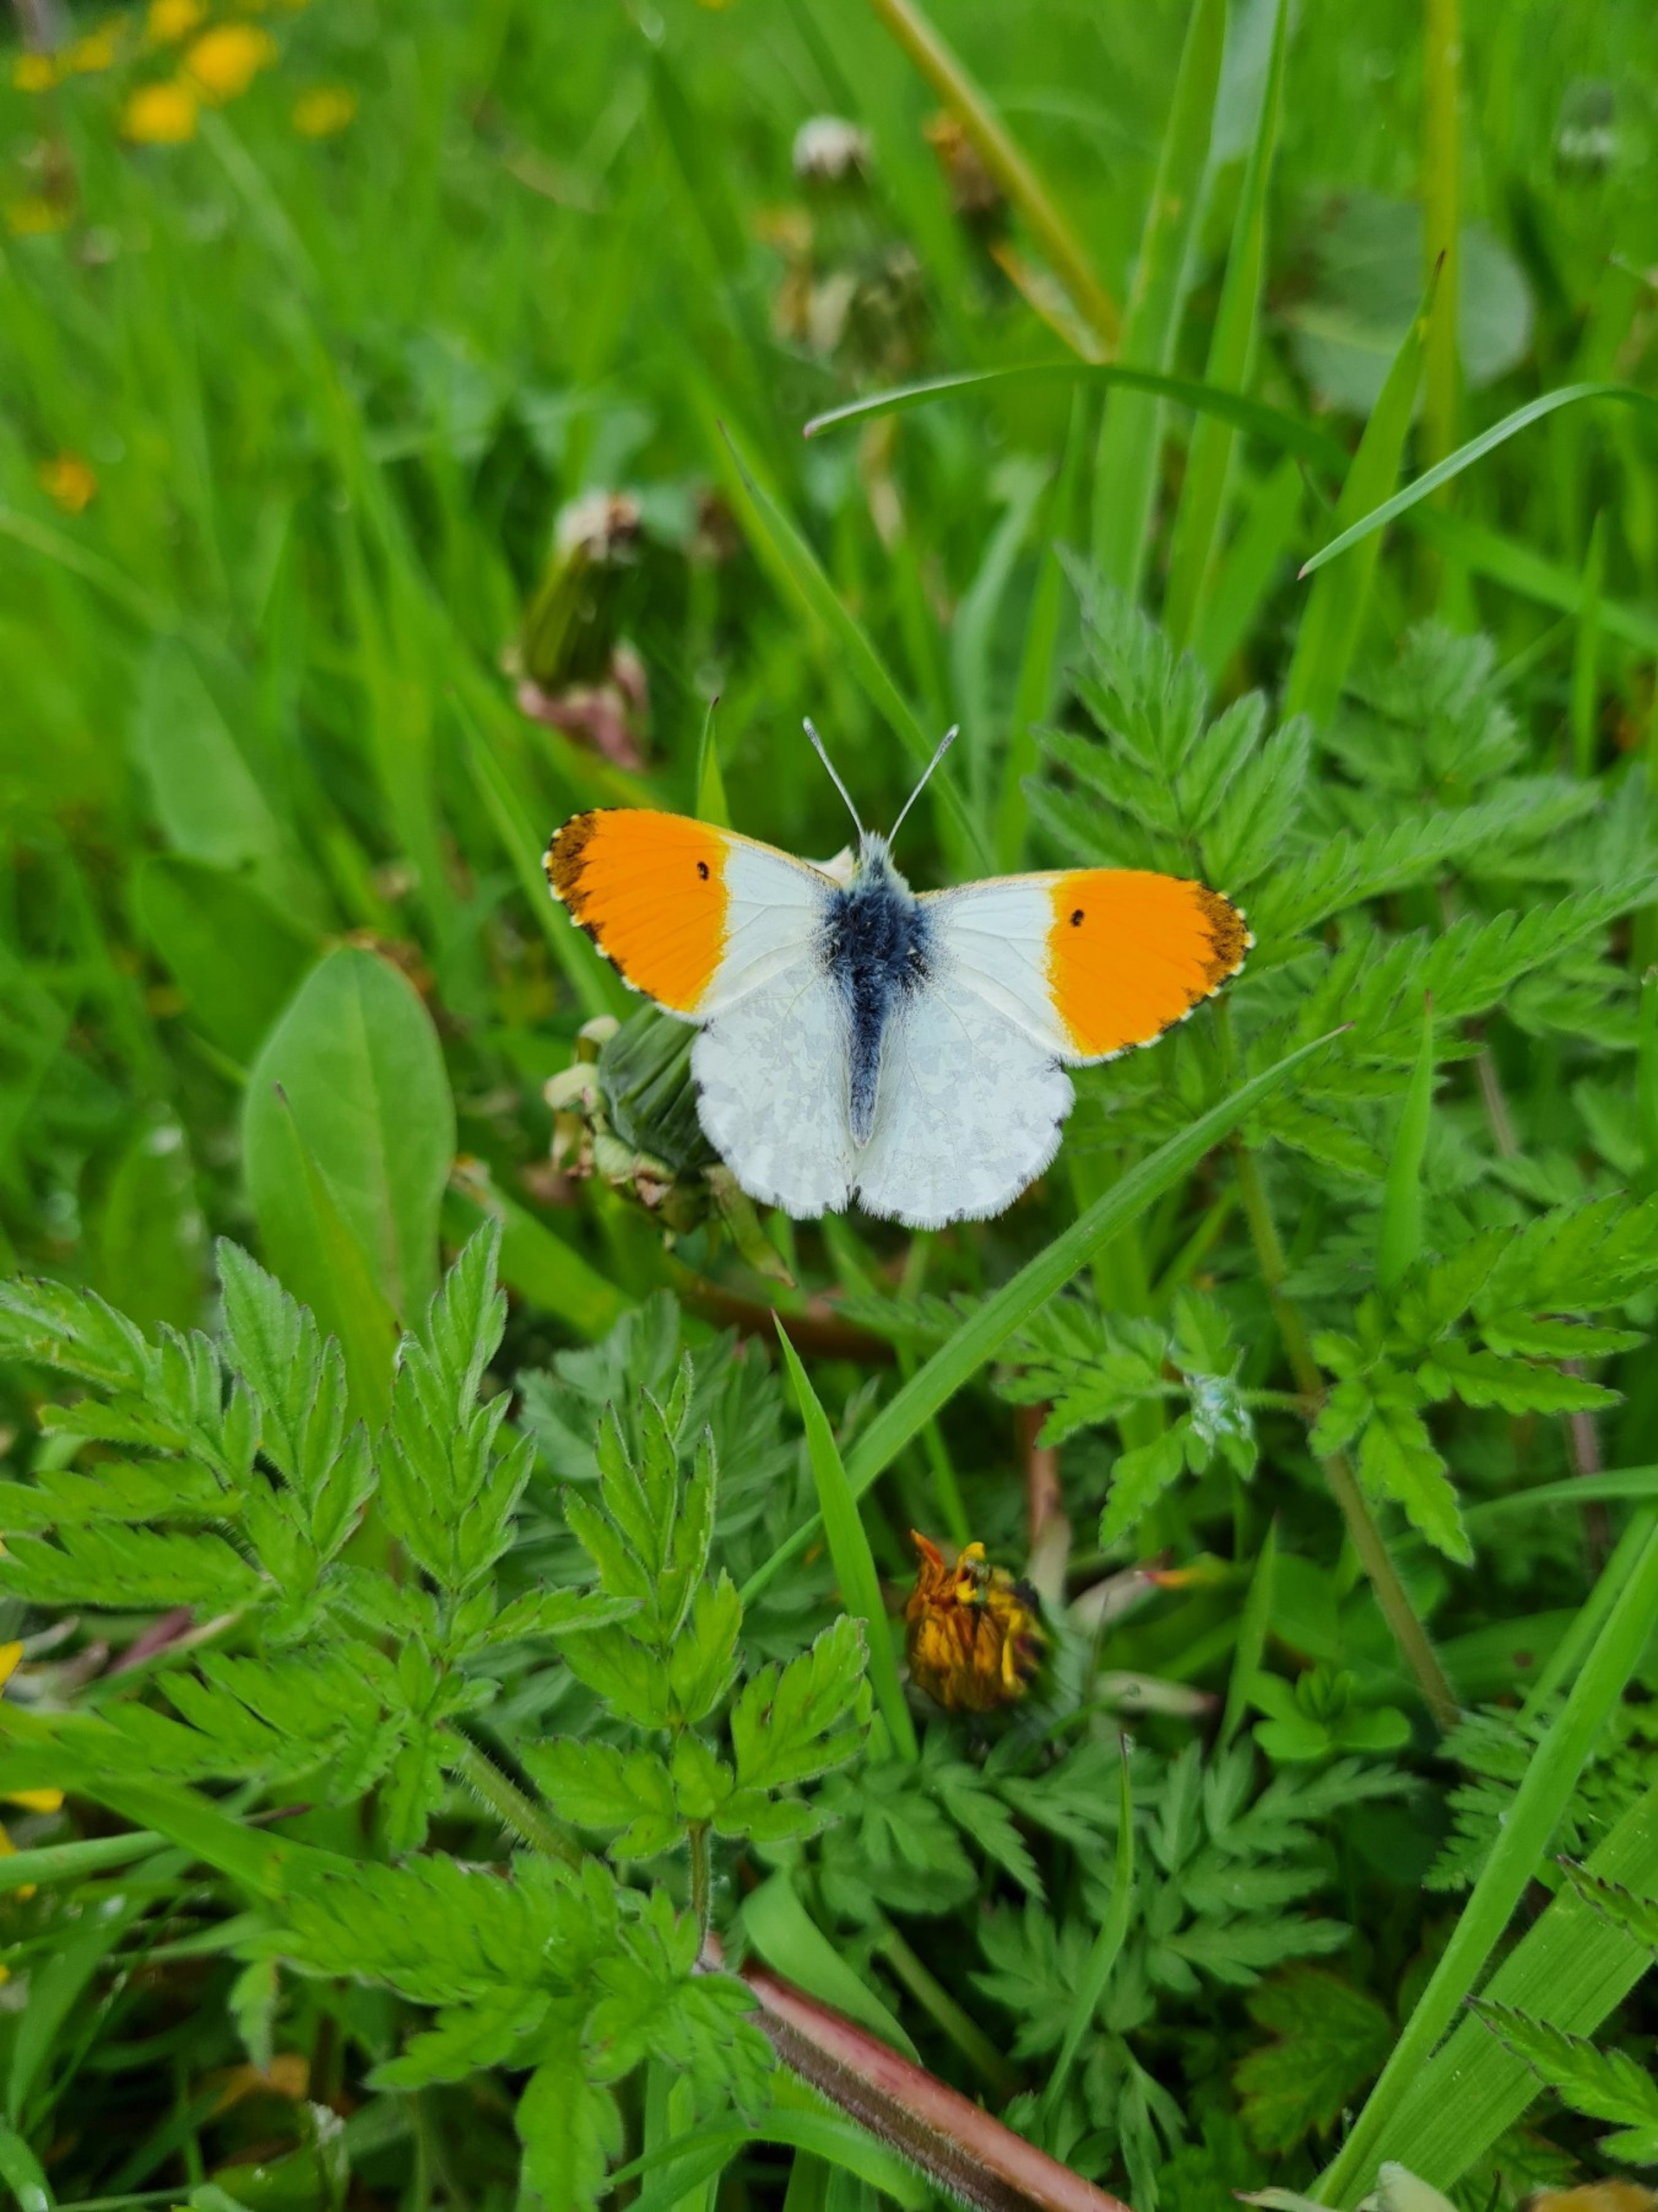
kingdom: Animalia
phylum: Arthropoda
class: Insecta
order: Lepidoptera
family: Pieridae
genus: Anthocharis
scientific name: Anthocharis cardamines
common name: Aurora
